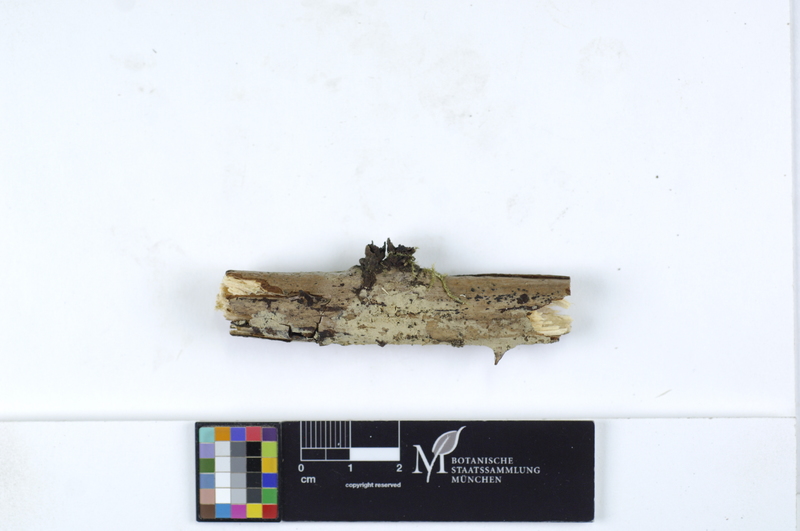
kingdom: Fungi
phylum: Basidiomycota
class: Agaricomycetes
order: Trechisporales
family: Hydnodontaceae
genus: Brevicellicium
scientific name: Brevicellicium olivascens
